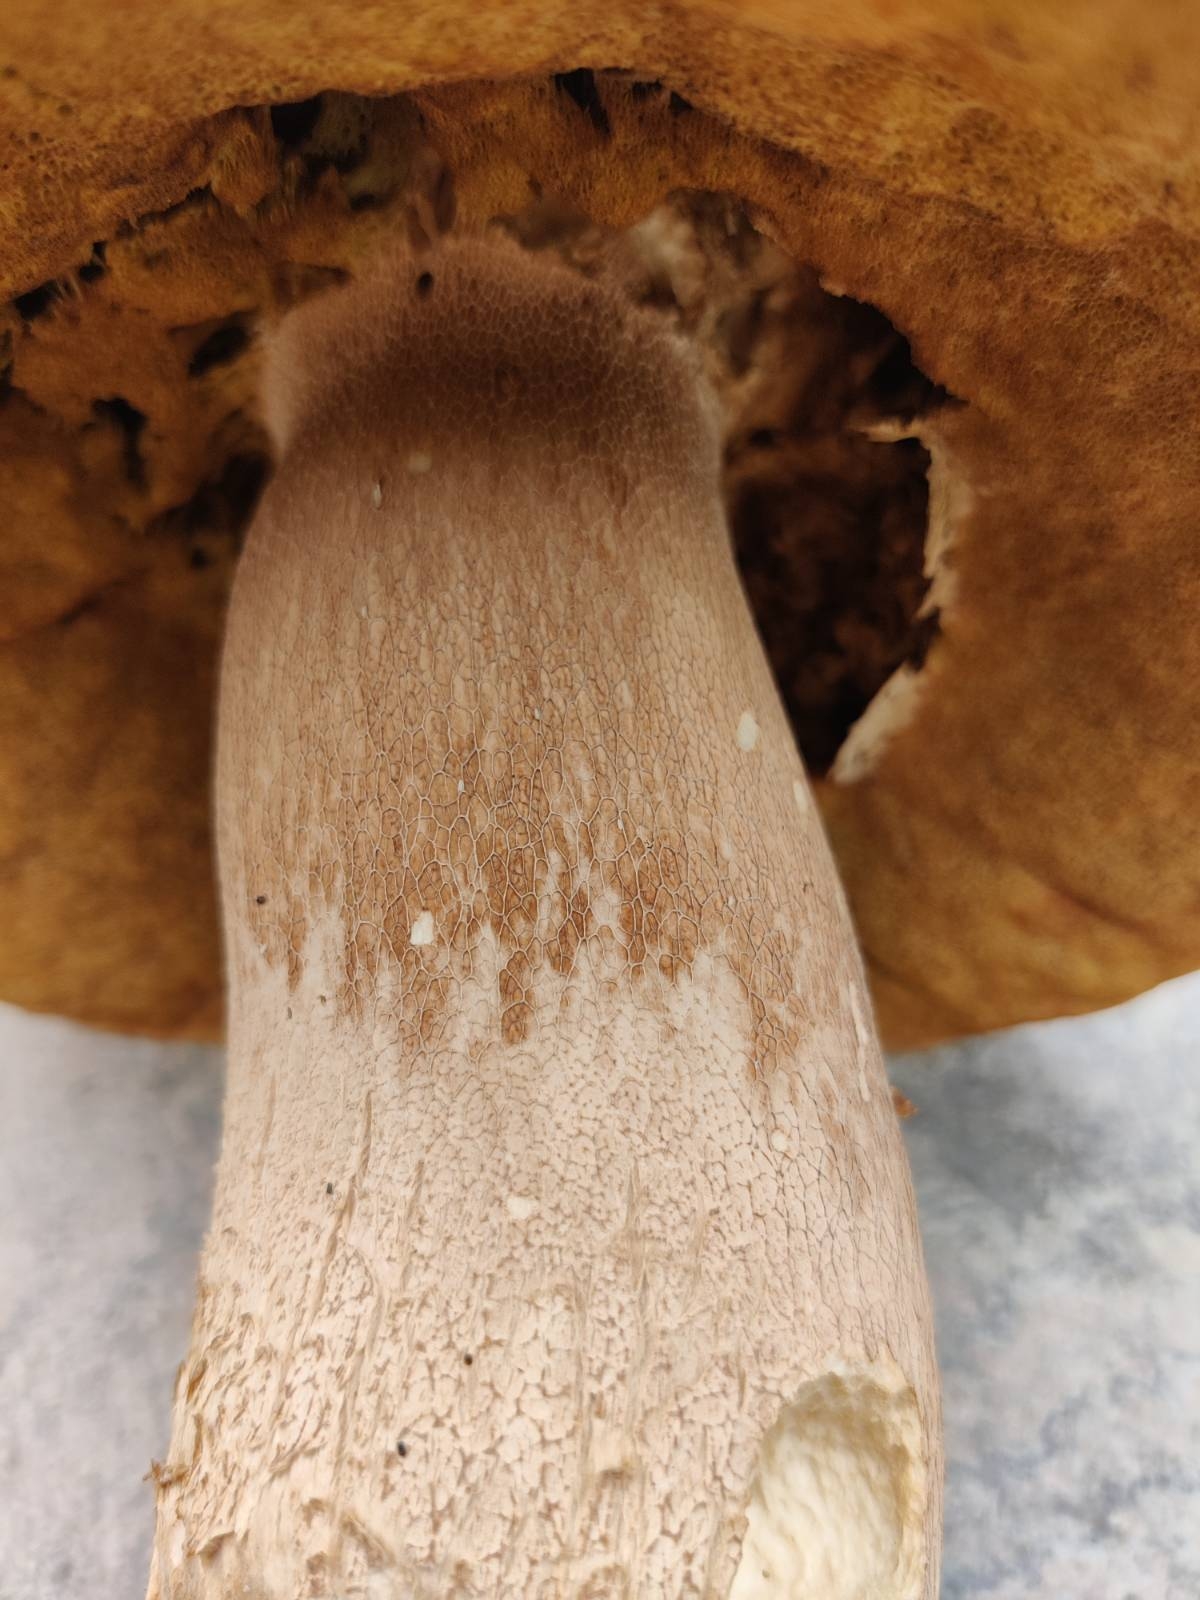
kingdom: Fungi
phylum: Basidiomycota
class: Agaricomycetes
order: Boletales
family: Boletaceae
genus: Boletus
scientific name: Boletus reticulatus
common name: sommer-rørhat
